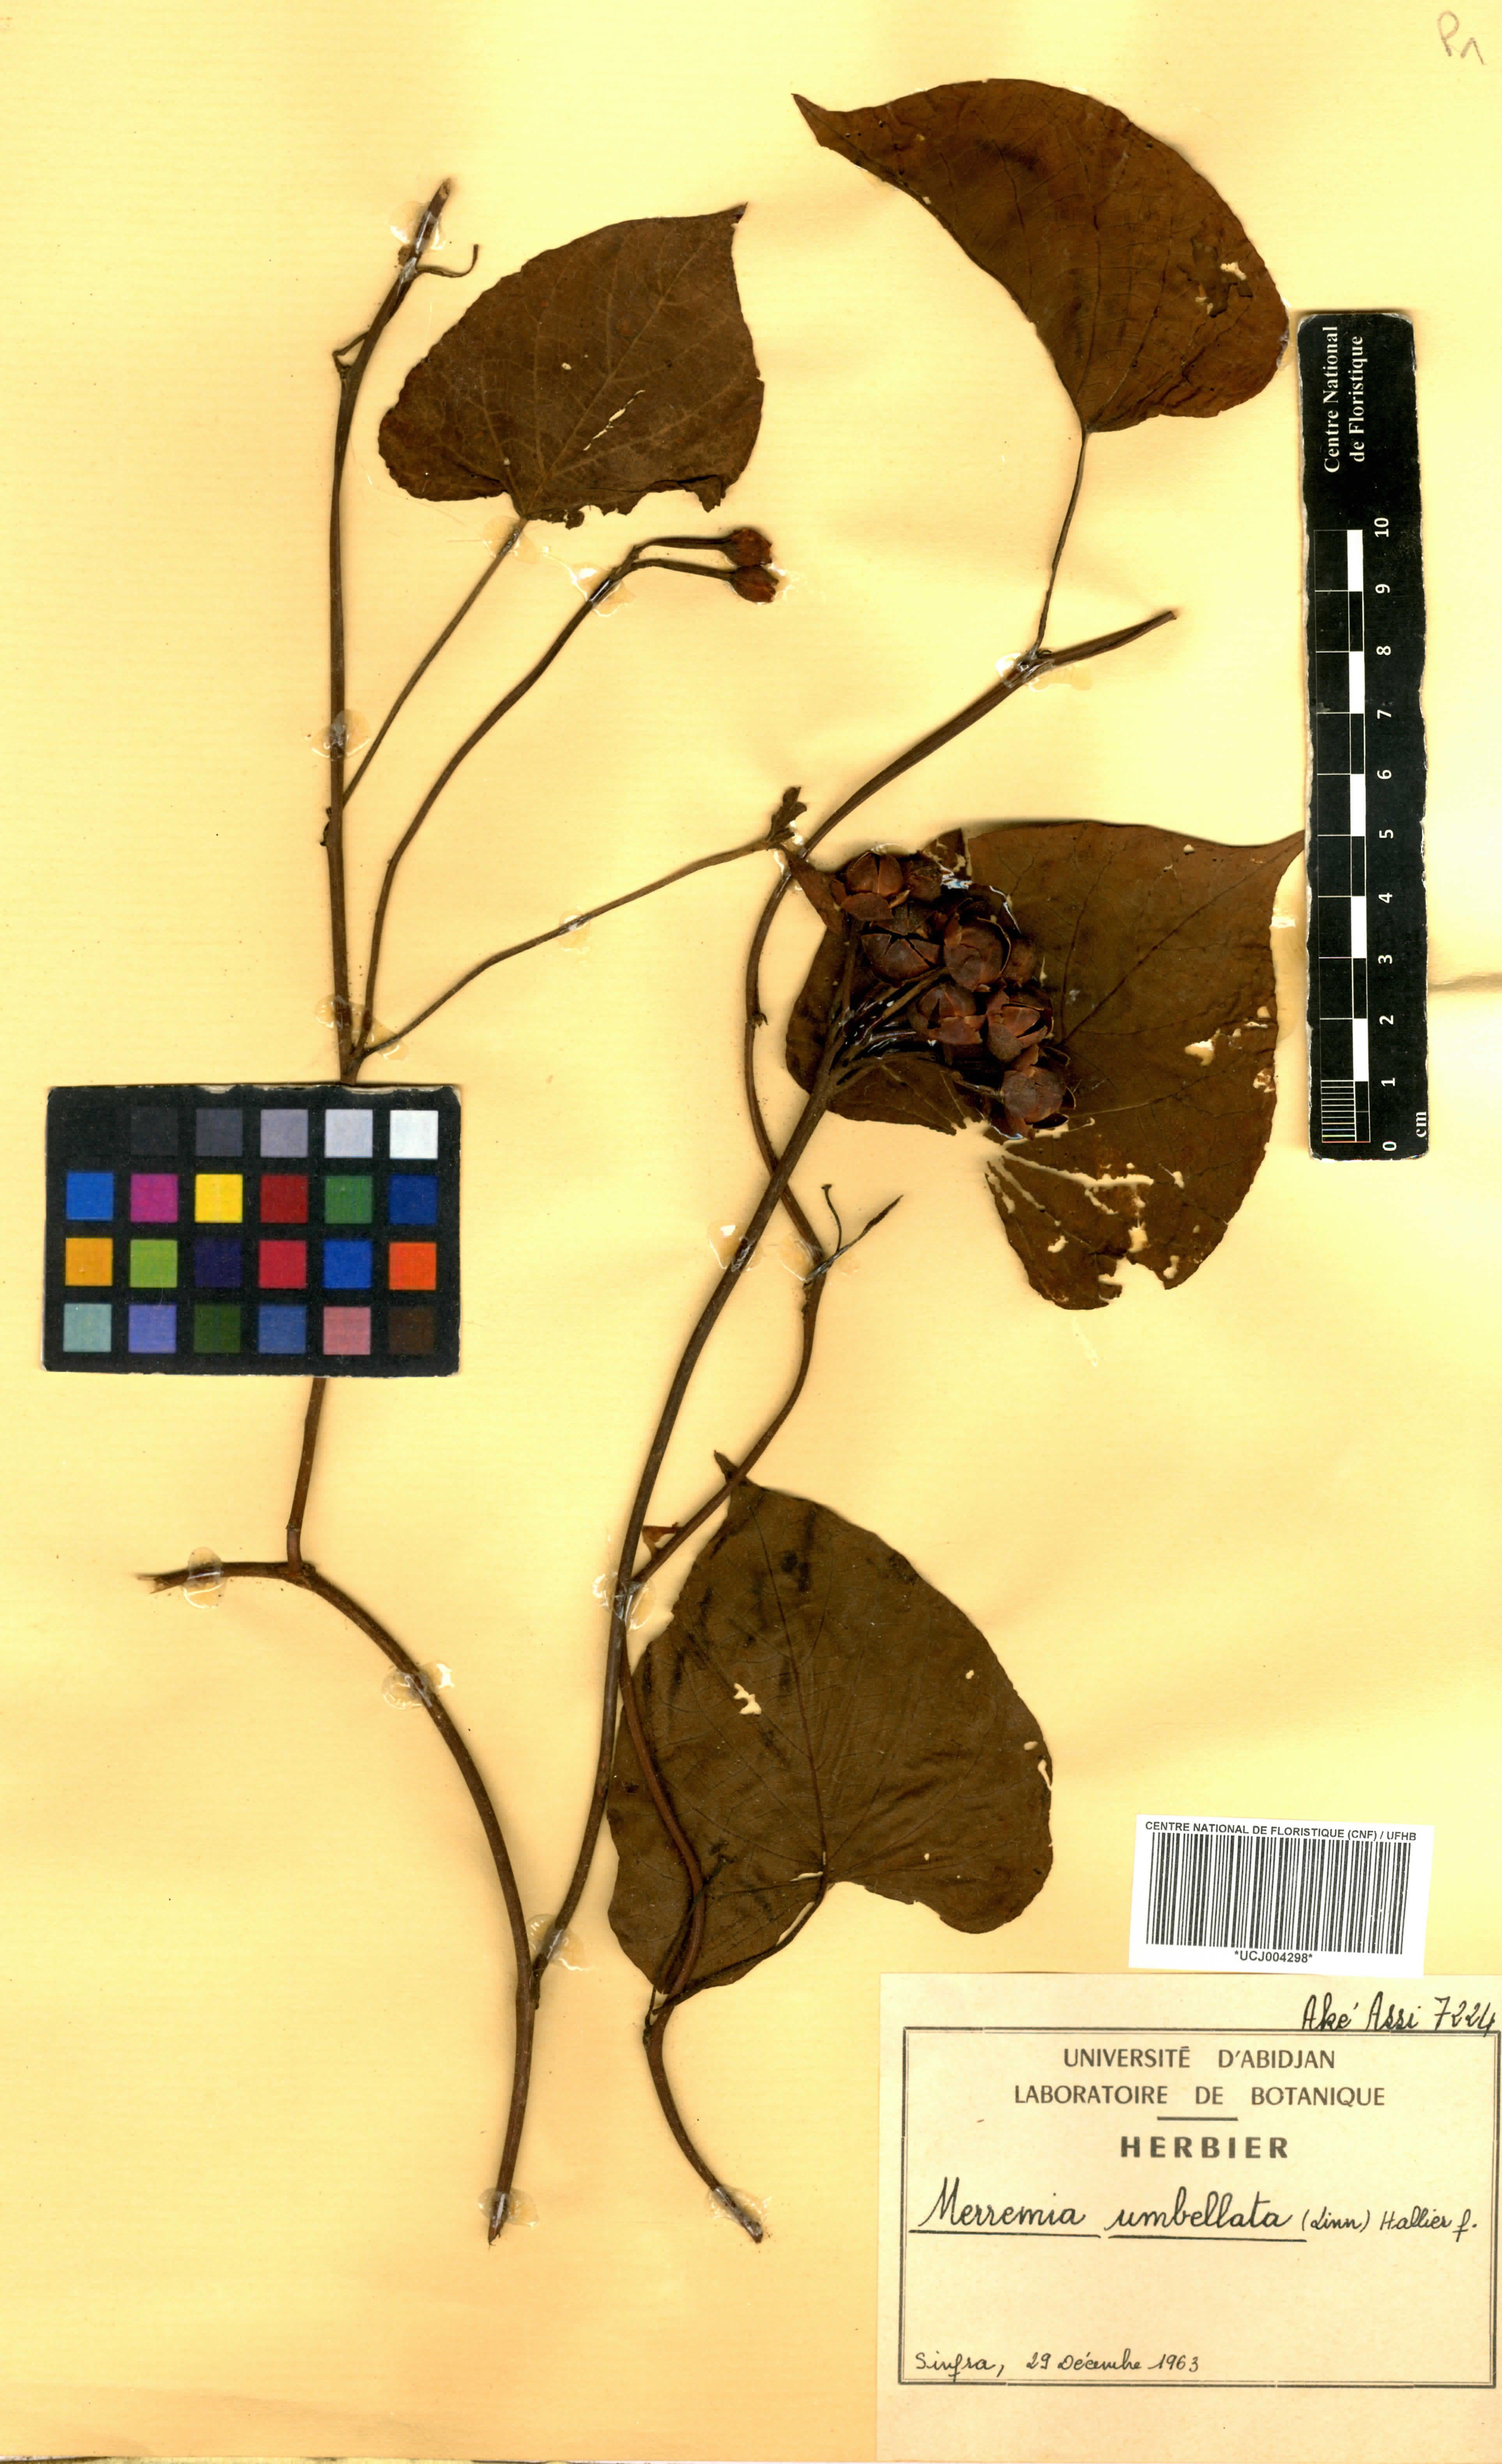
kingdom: Plantae
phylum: Tracheophyta
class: Magnoliopsida
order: Solanales
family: Convolvulaceae
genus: Camonea
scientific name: Camonea umbellata
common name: Hogvine
